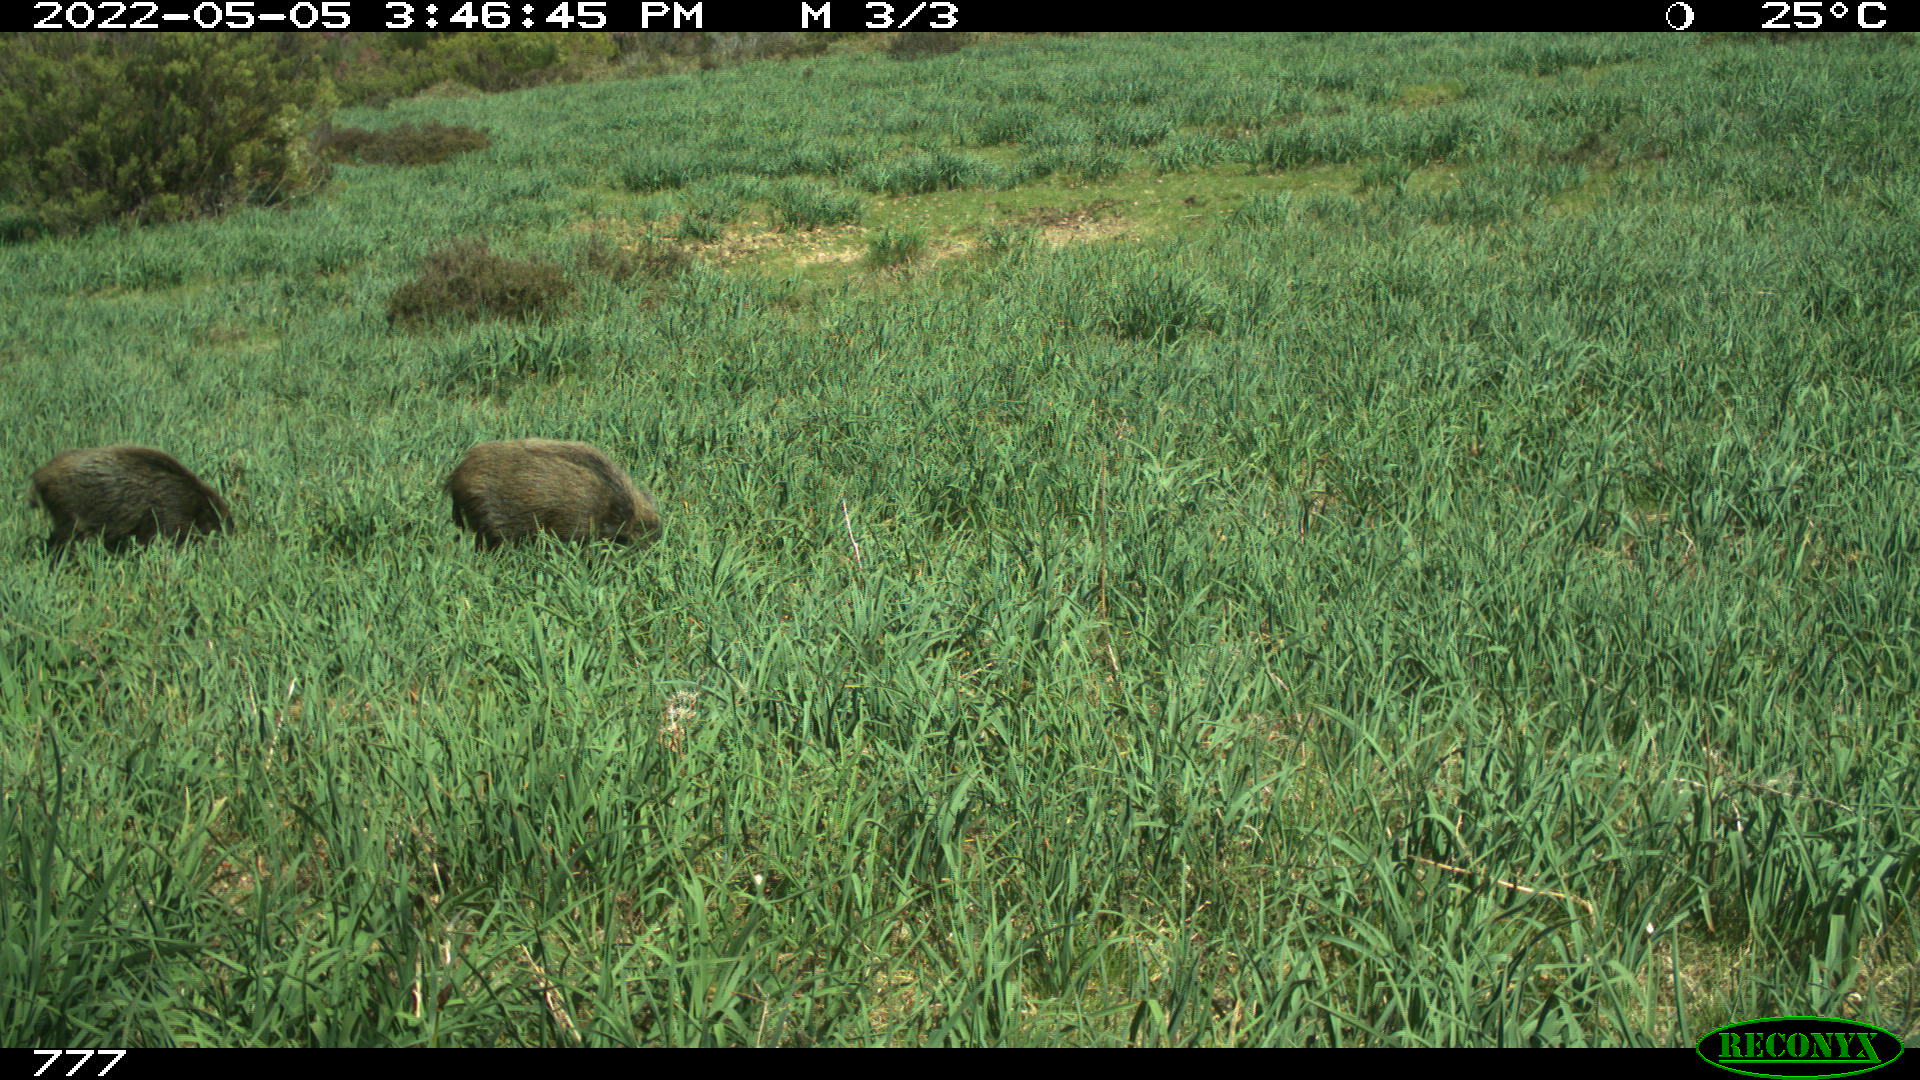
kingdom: Animalia
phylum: Chordata
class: Mammalia
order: Artiodactyla
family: Suidae
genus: Sus
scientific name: Sus scrofa
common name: Wild boar
